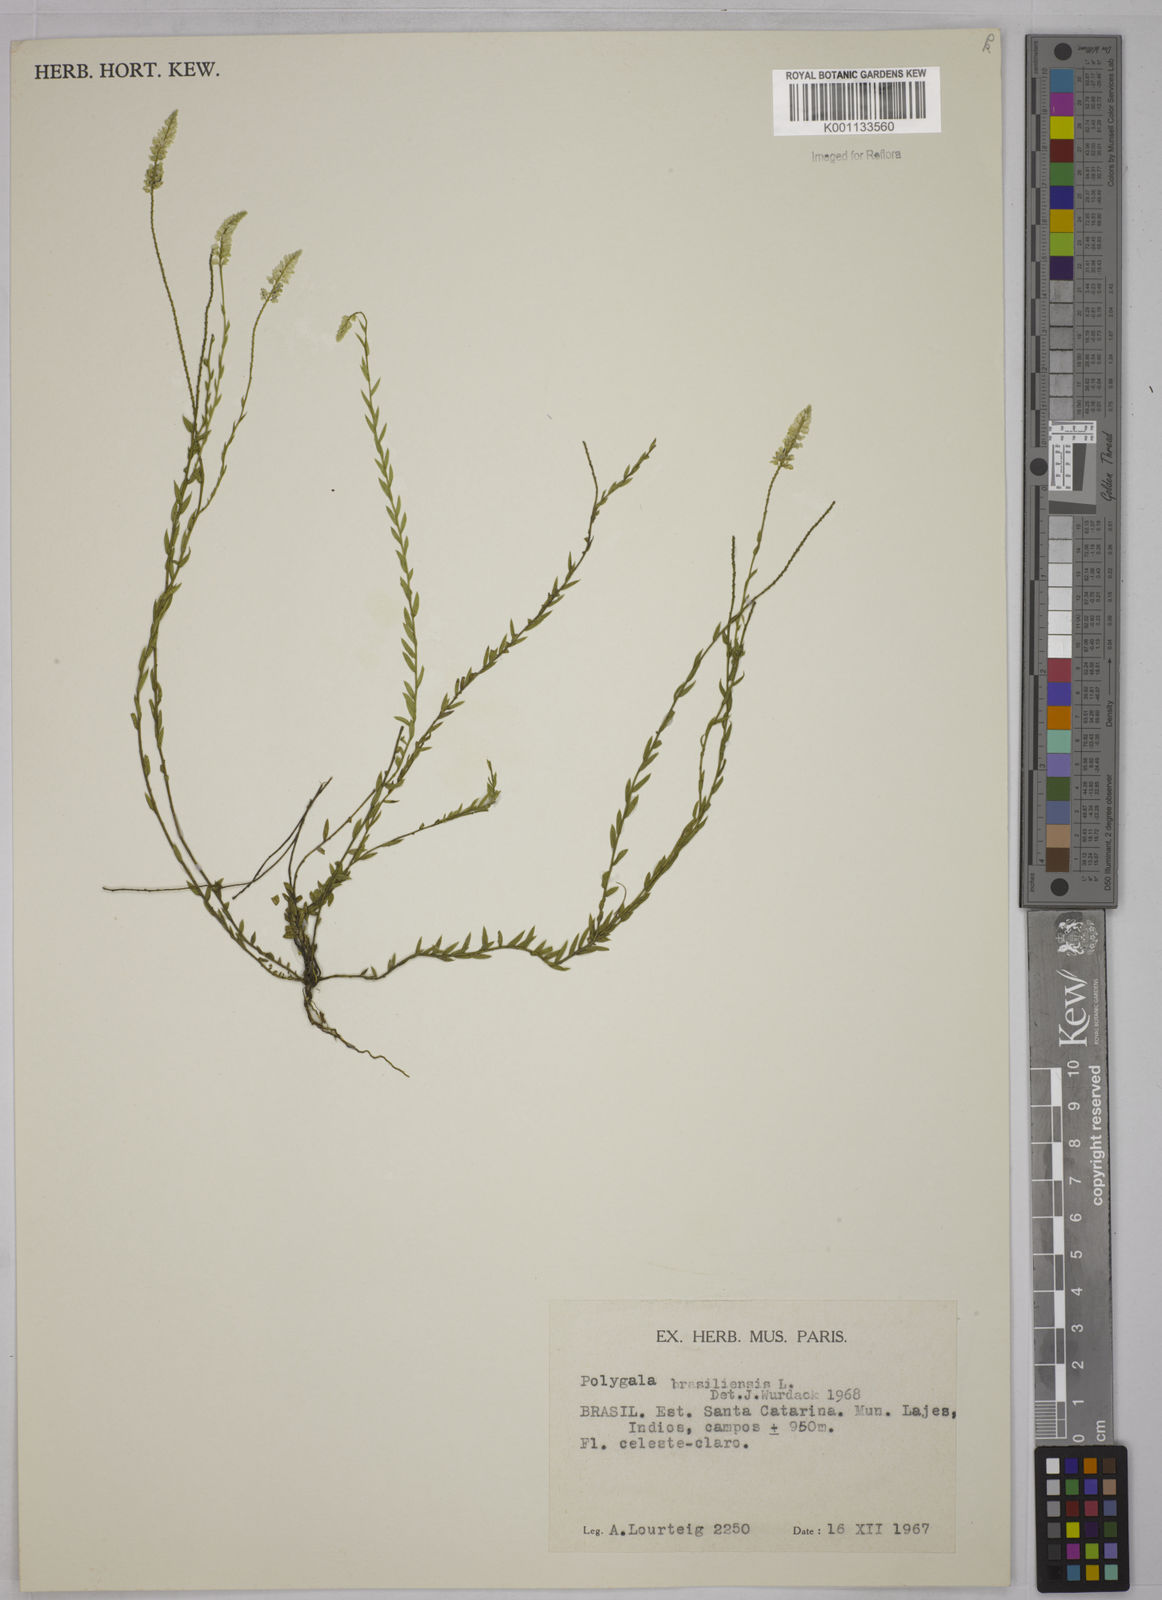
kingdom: Plantae
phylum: Tracheophyta
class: Magnoliopsida
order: Fabales
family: Polygalaceae
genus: Polygala
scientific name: Polygala brasiliensis
